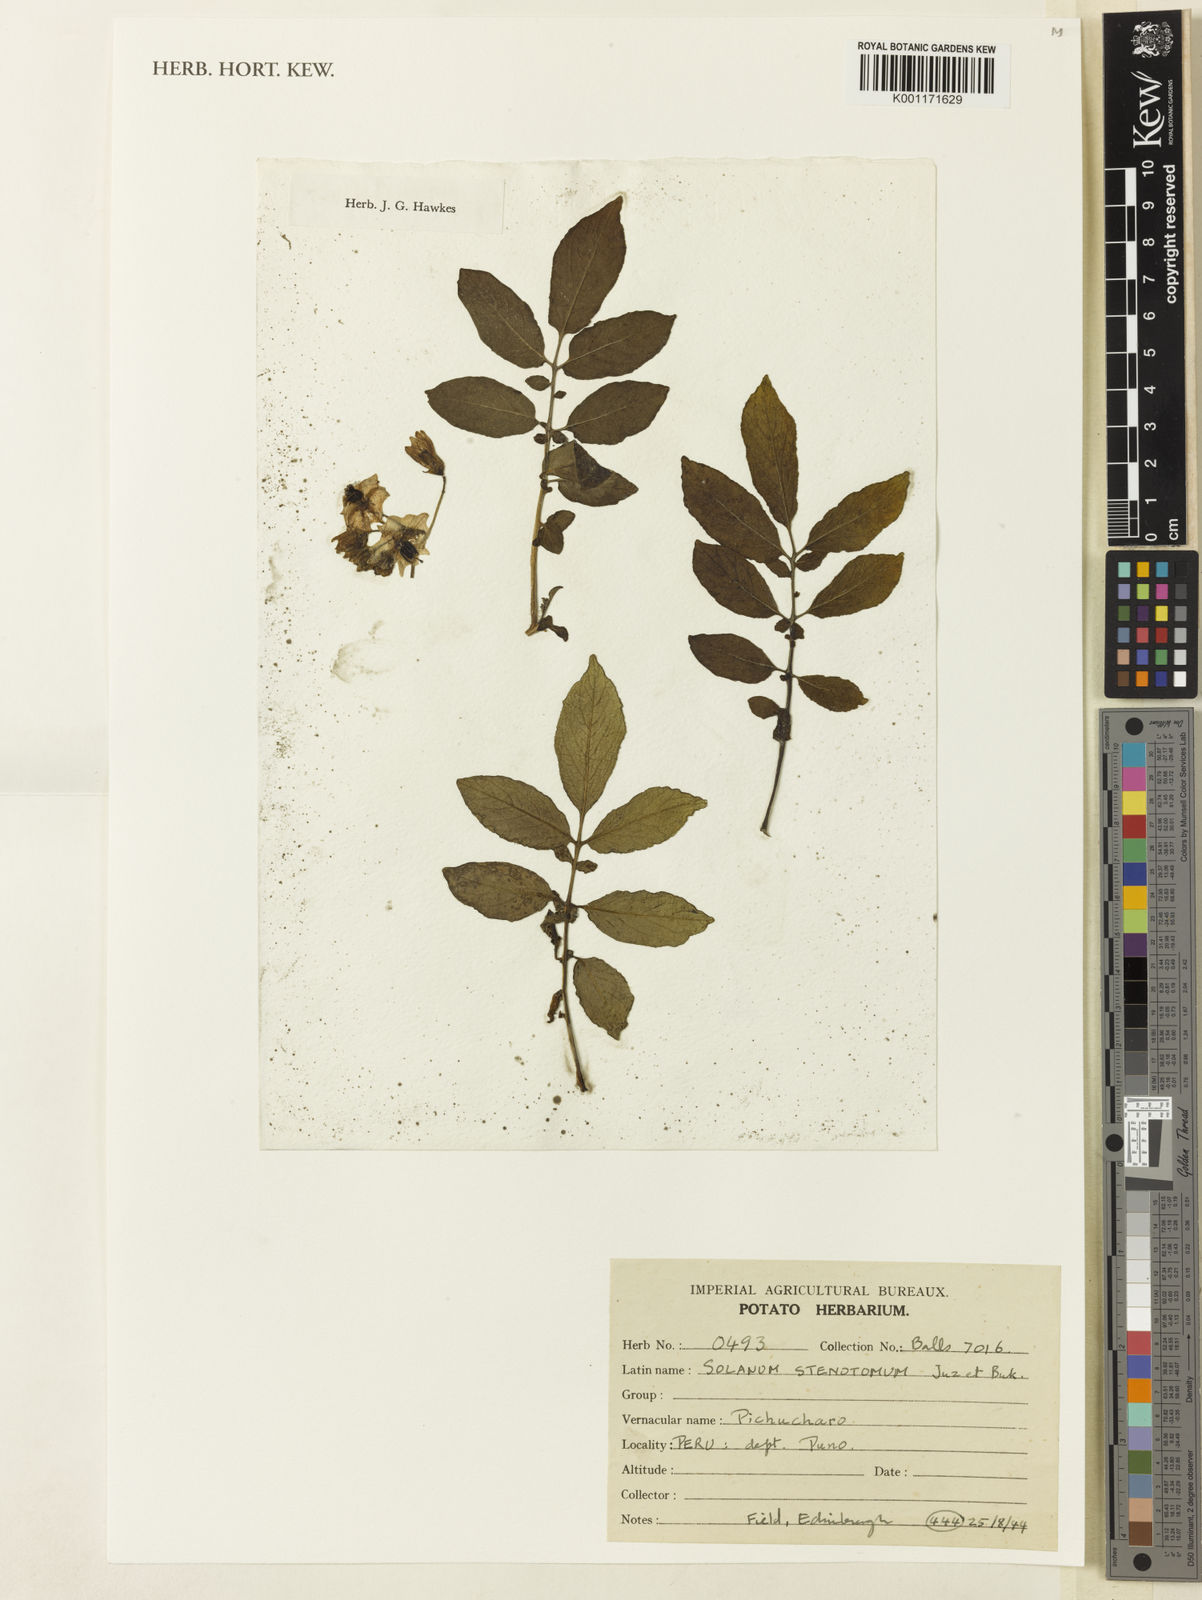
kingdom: Plantae
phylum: Tracheophyta
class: Magnoliopsida
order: Solanales
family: Solanaceae
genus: Solanum
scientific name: Solanum tuberosum
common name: Potato
